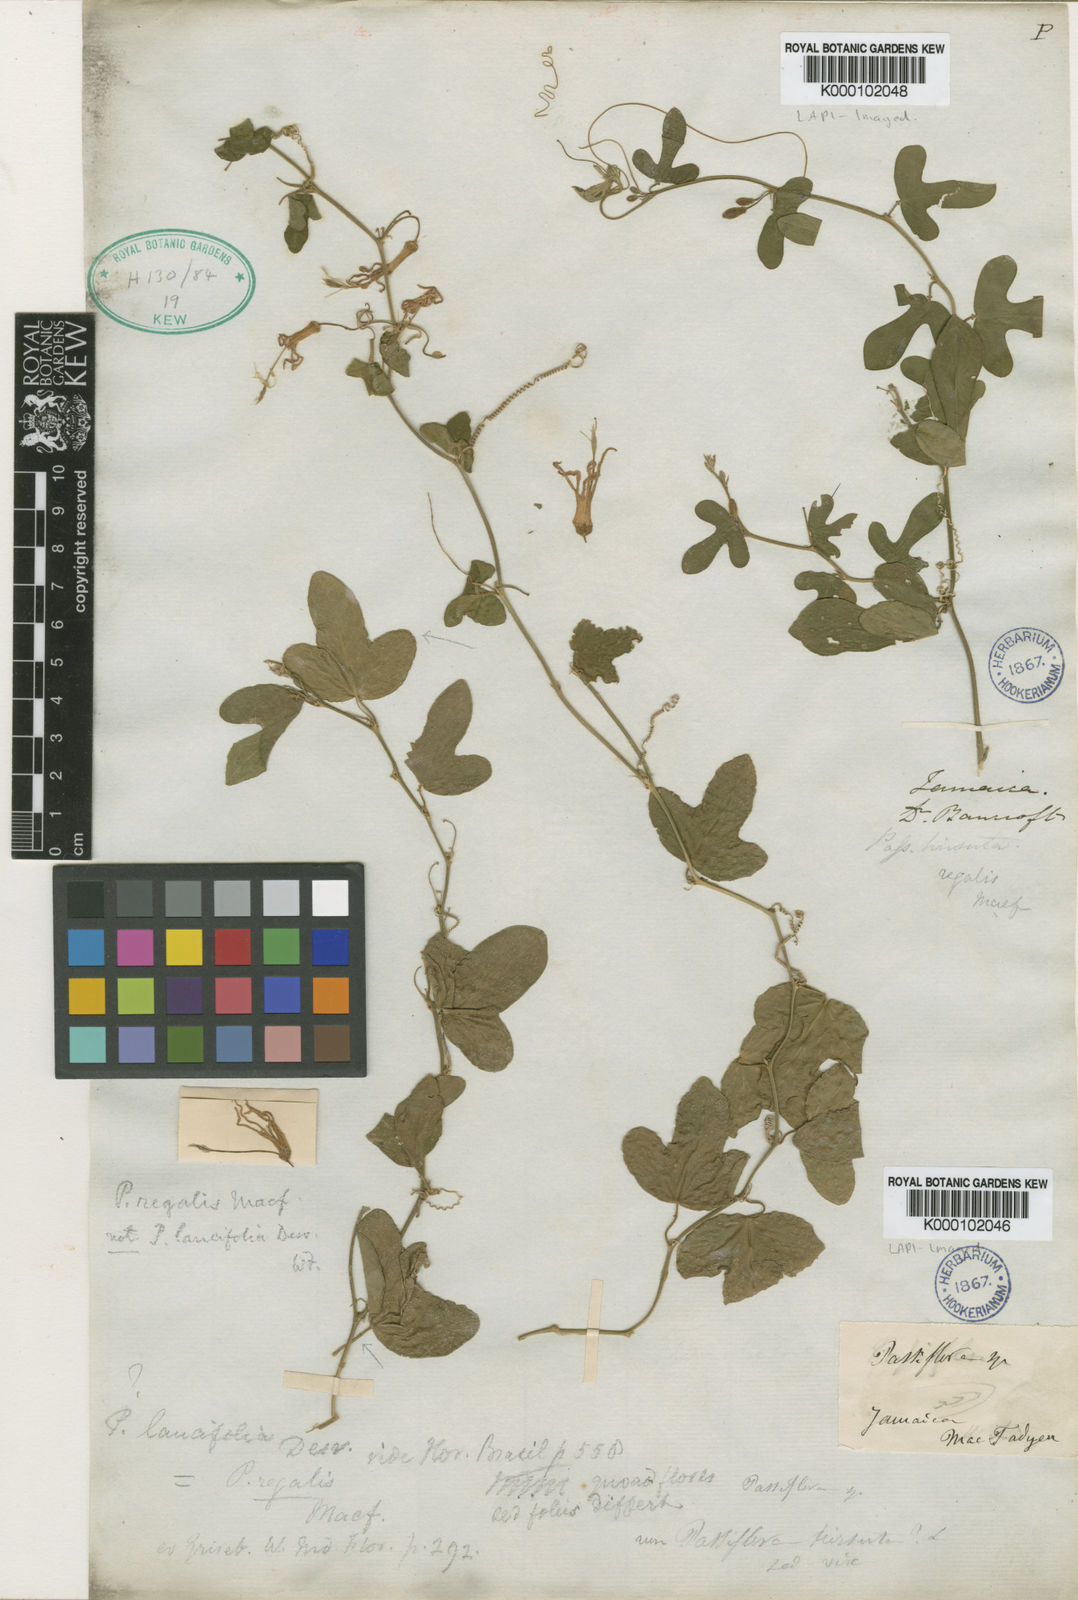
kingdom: Plantae
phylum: Tracheophyta
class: Magnoliopsida
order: Malpighiales
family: Passifloraceae
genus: Passiflora
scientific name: Passiflora lancifolia
